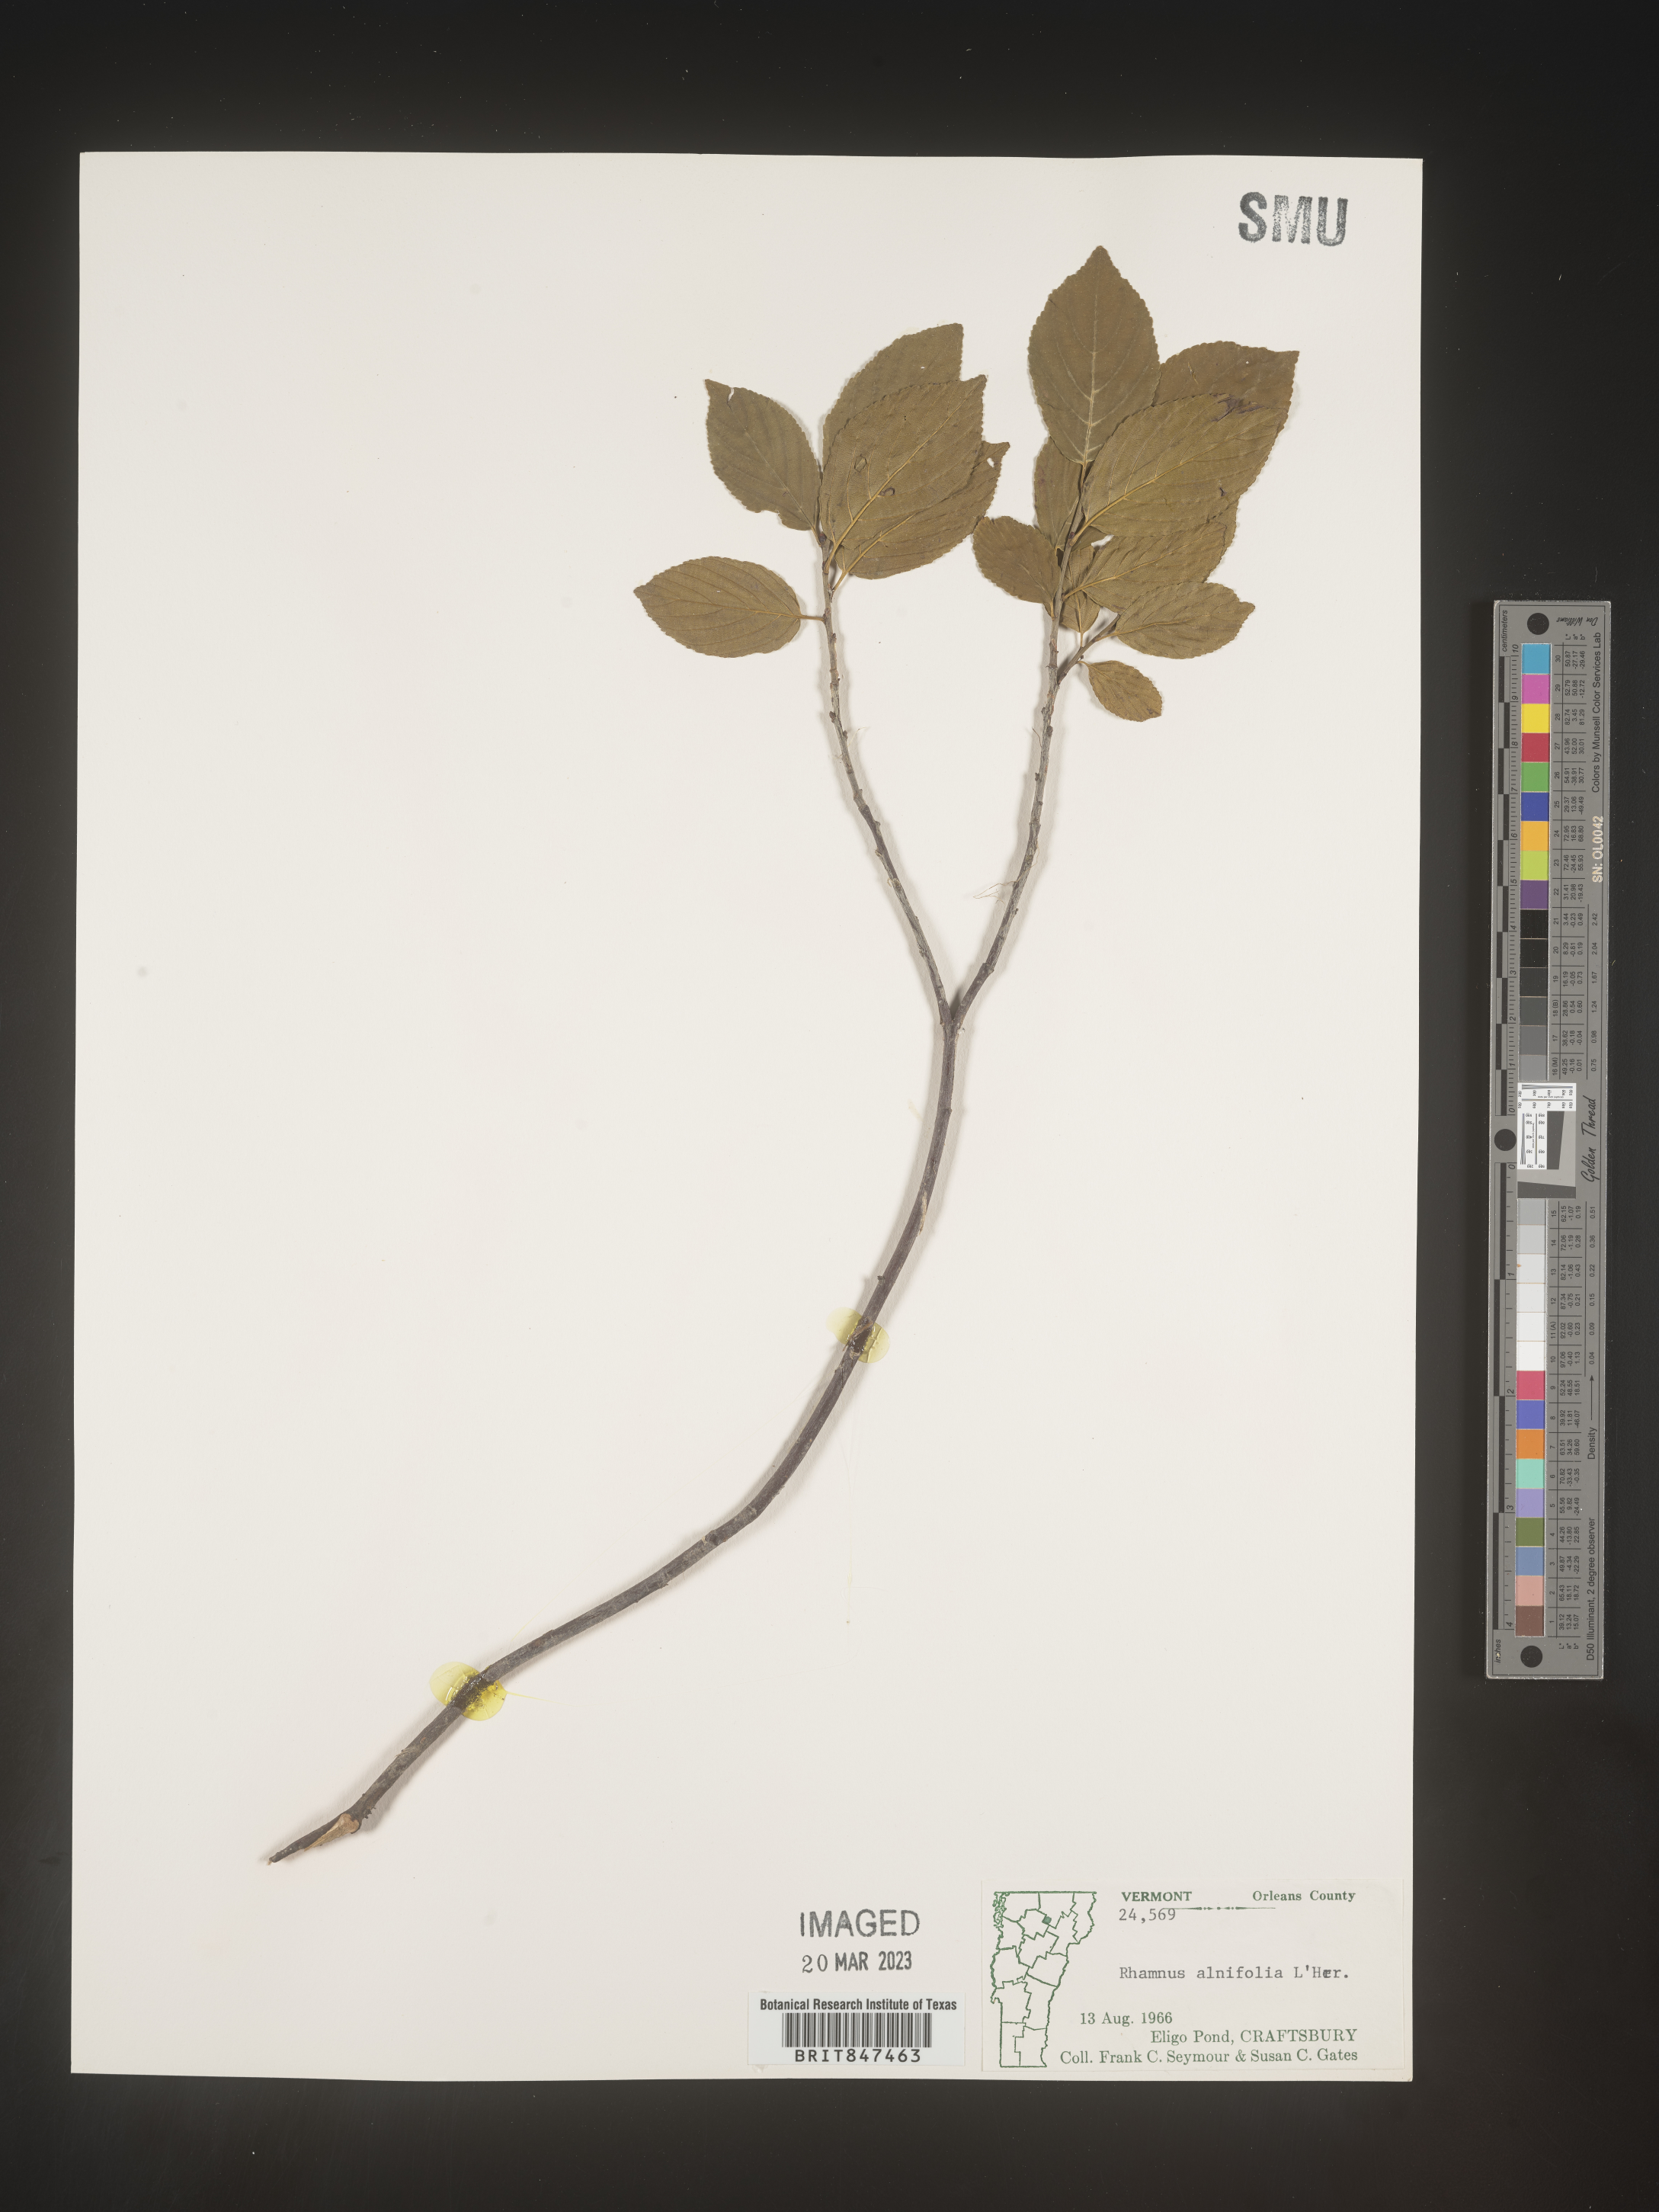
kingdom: Plantae
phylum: Tracheophyta
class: Magnoliopsida
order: Rosales
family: Rhamnaceae
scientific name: Rhamnaceae
